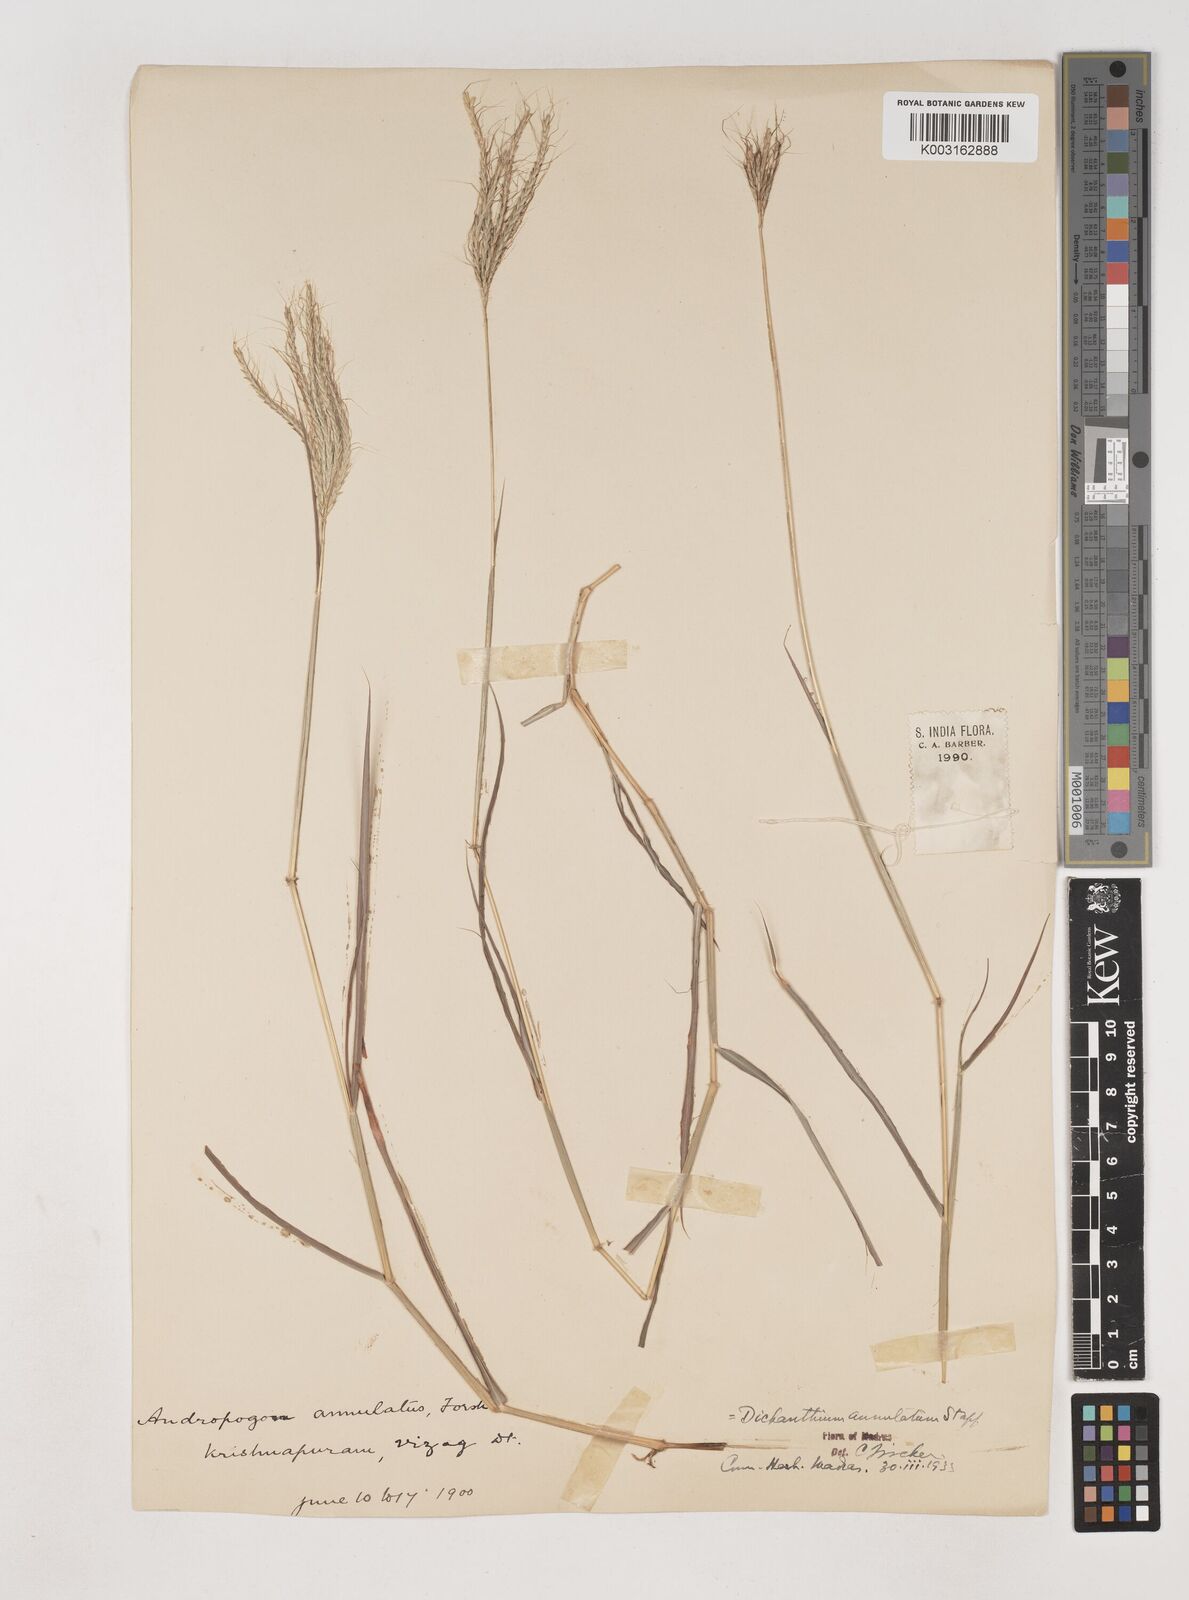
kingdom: Plantae
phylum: Tracheophyta
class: Liliopsida
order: Poales
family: Poaceae
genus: Dichanthium
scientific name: Dichanthium annulatum
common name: Kleberg's bluestem
